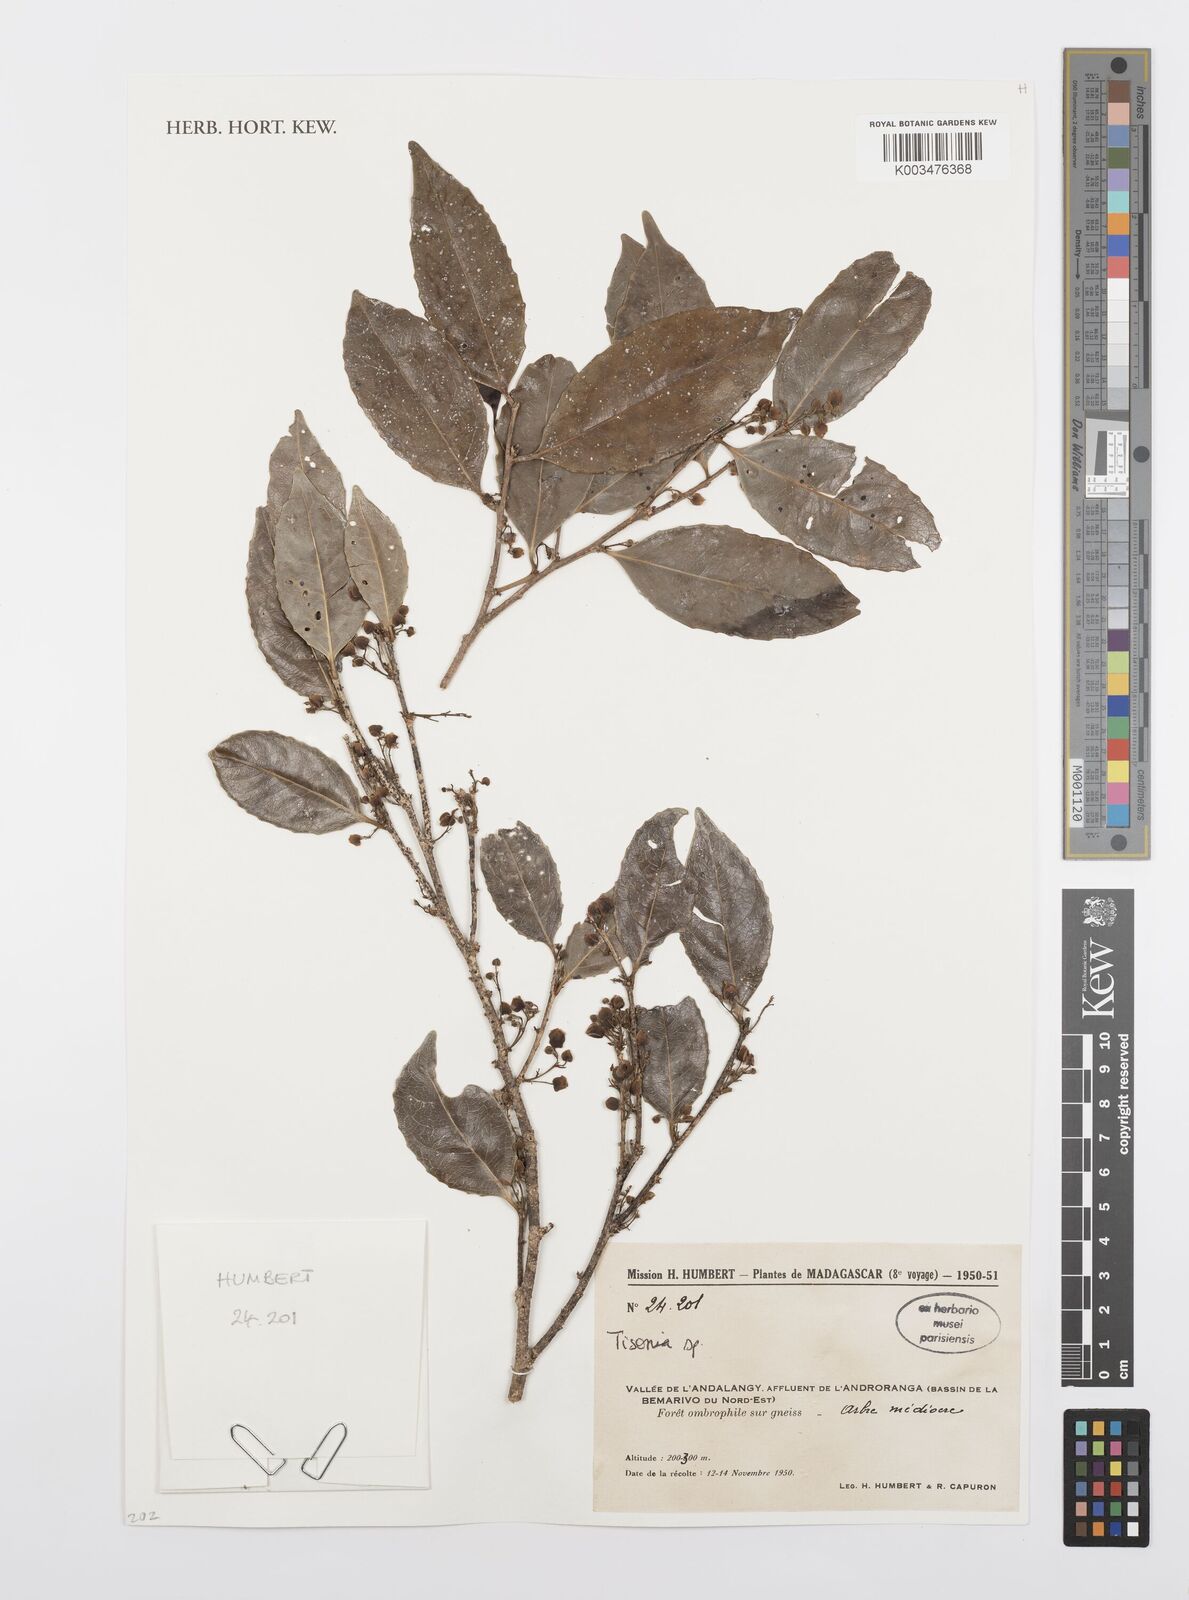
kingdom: Plantae
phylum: Tracheophyta
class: Magnoliopsida
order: Malpighiales
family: Salicaceae
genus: Tisonia
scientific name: Tisonia
